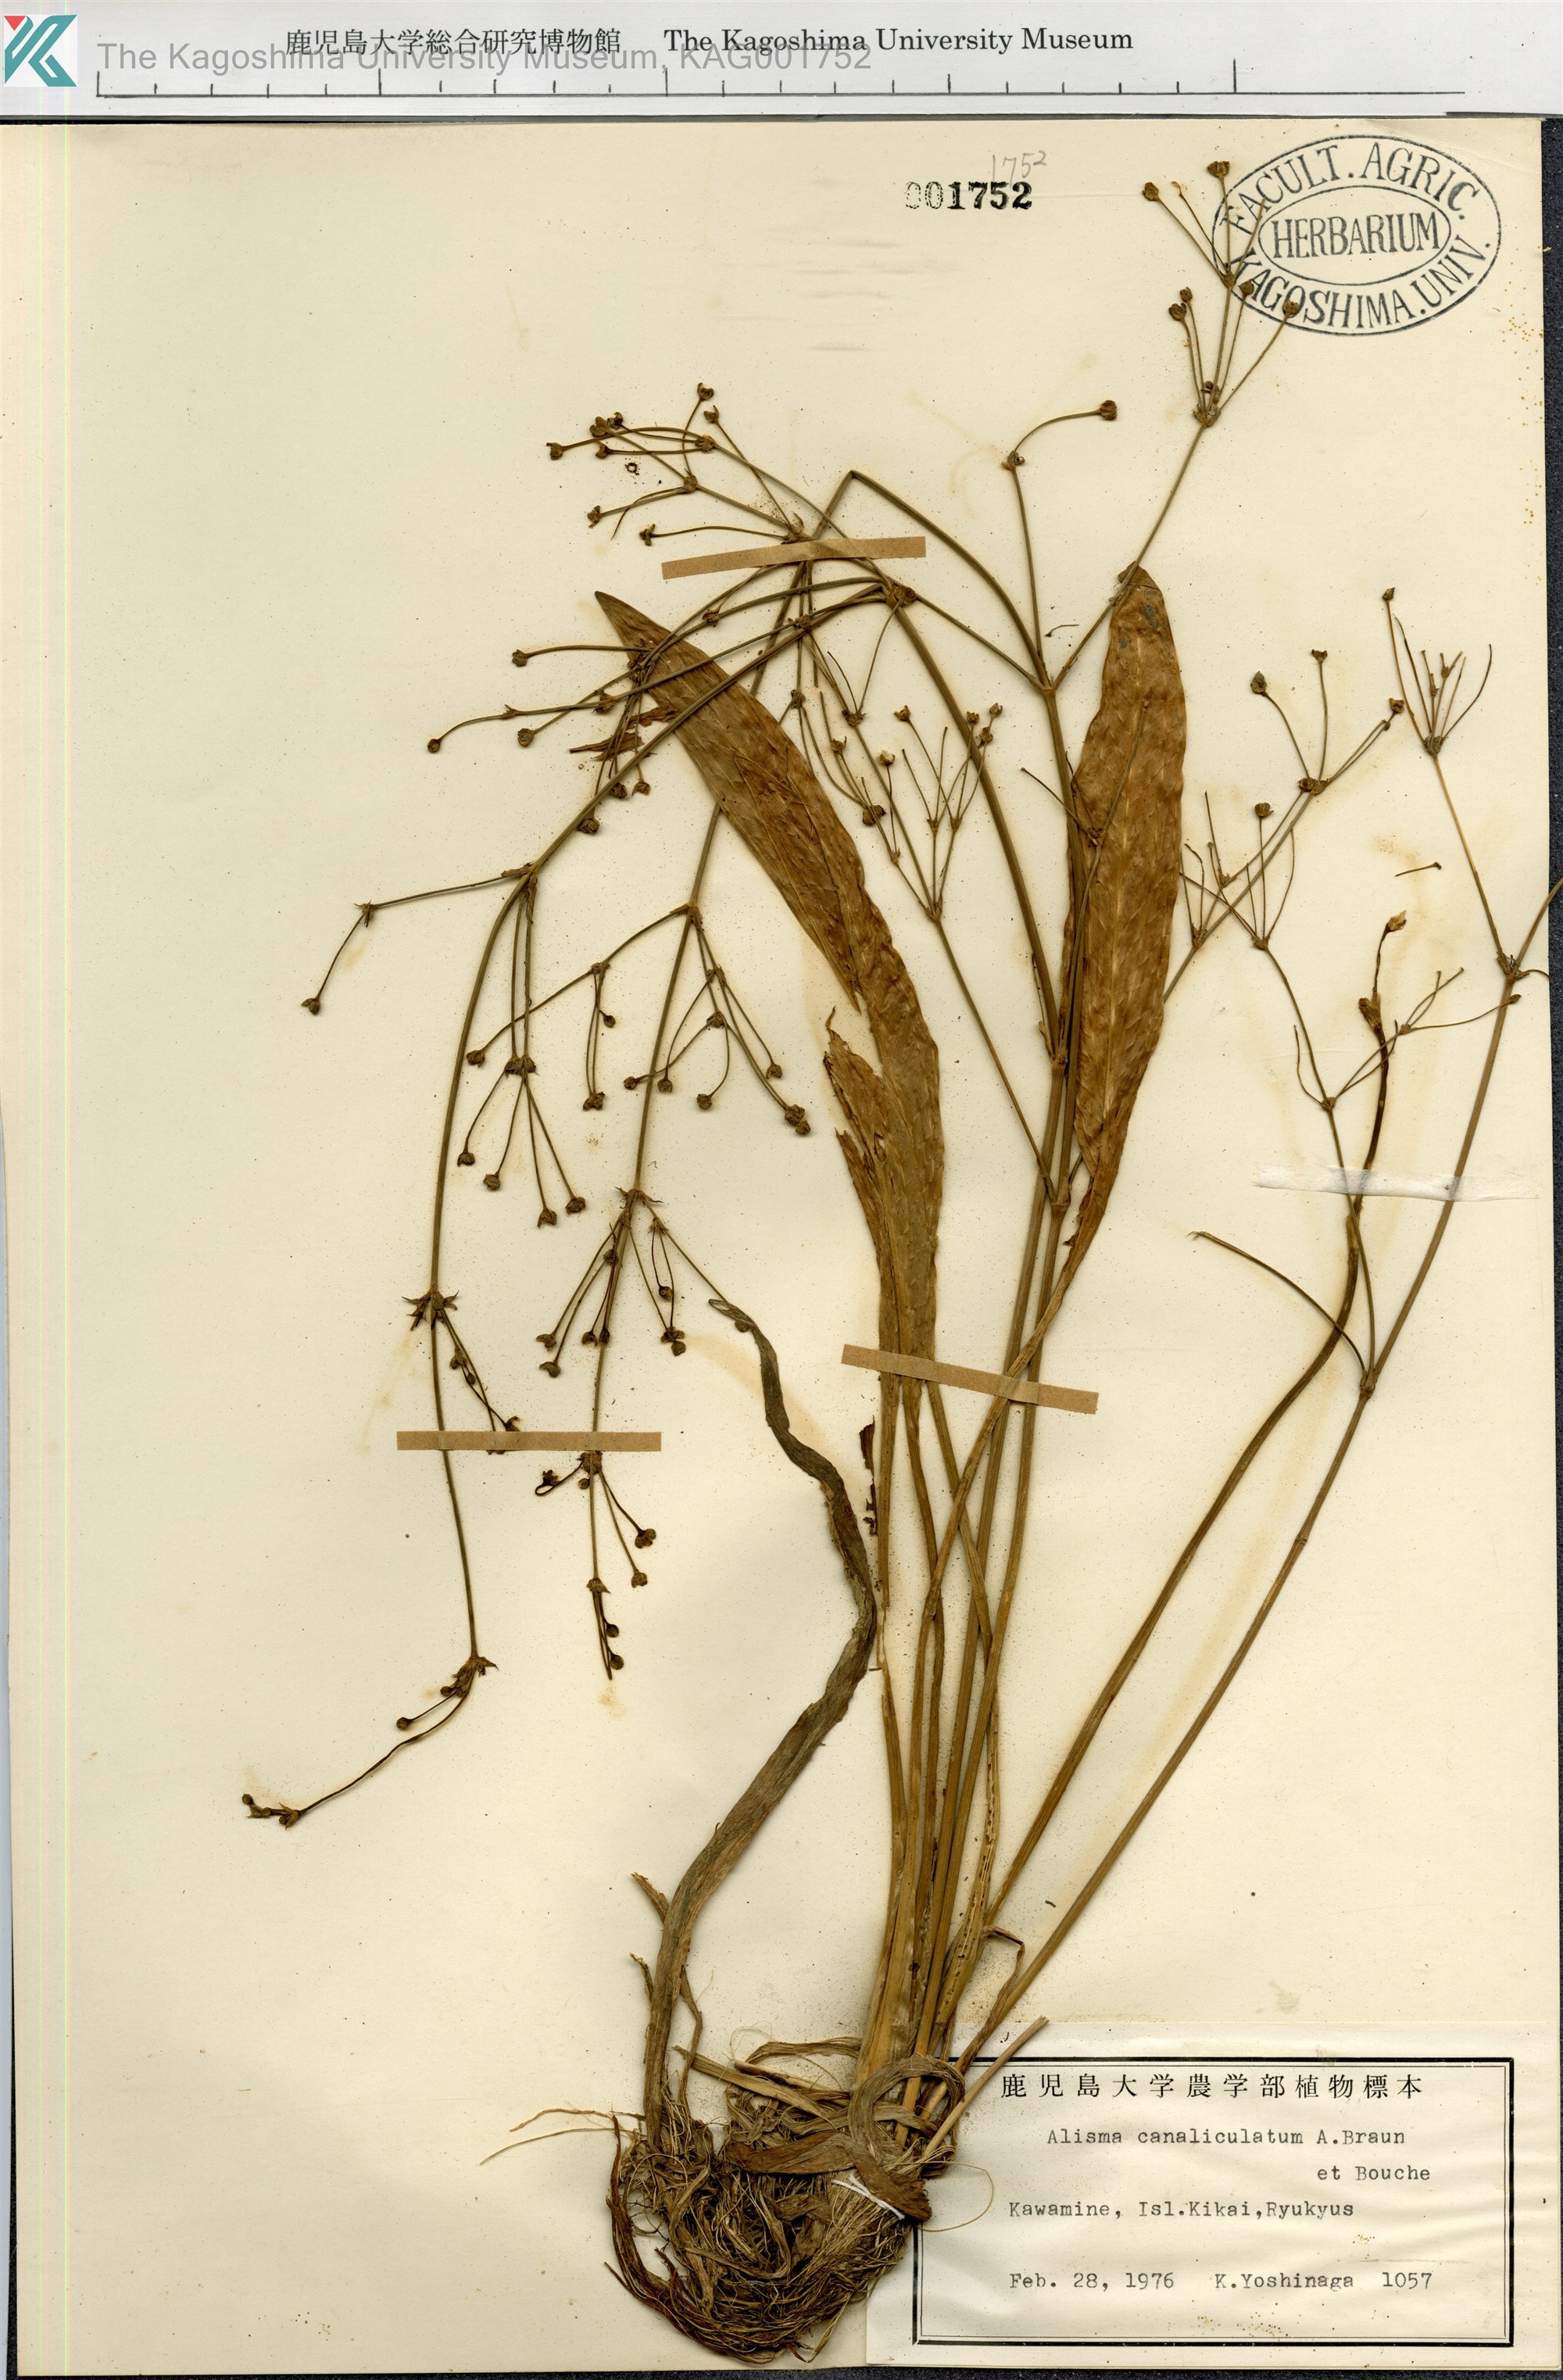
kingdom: Plantae
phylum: Tracheophyta
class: Liliopsida
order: Alismatales
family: Alismataceae
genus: Alisma
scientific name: Alisma canaliculatum
